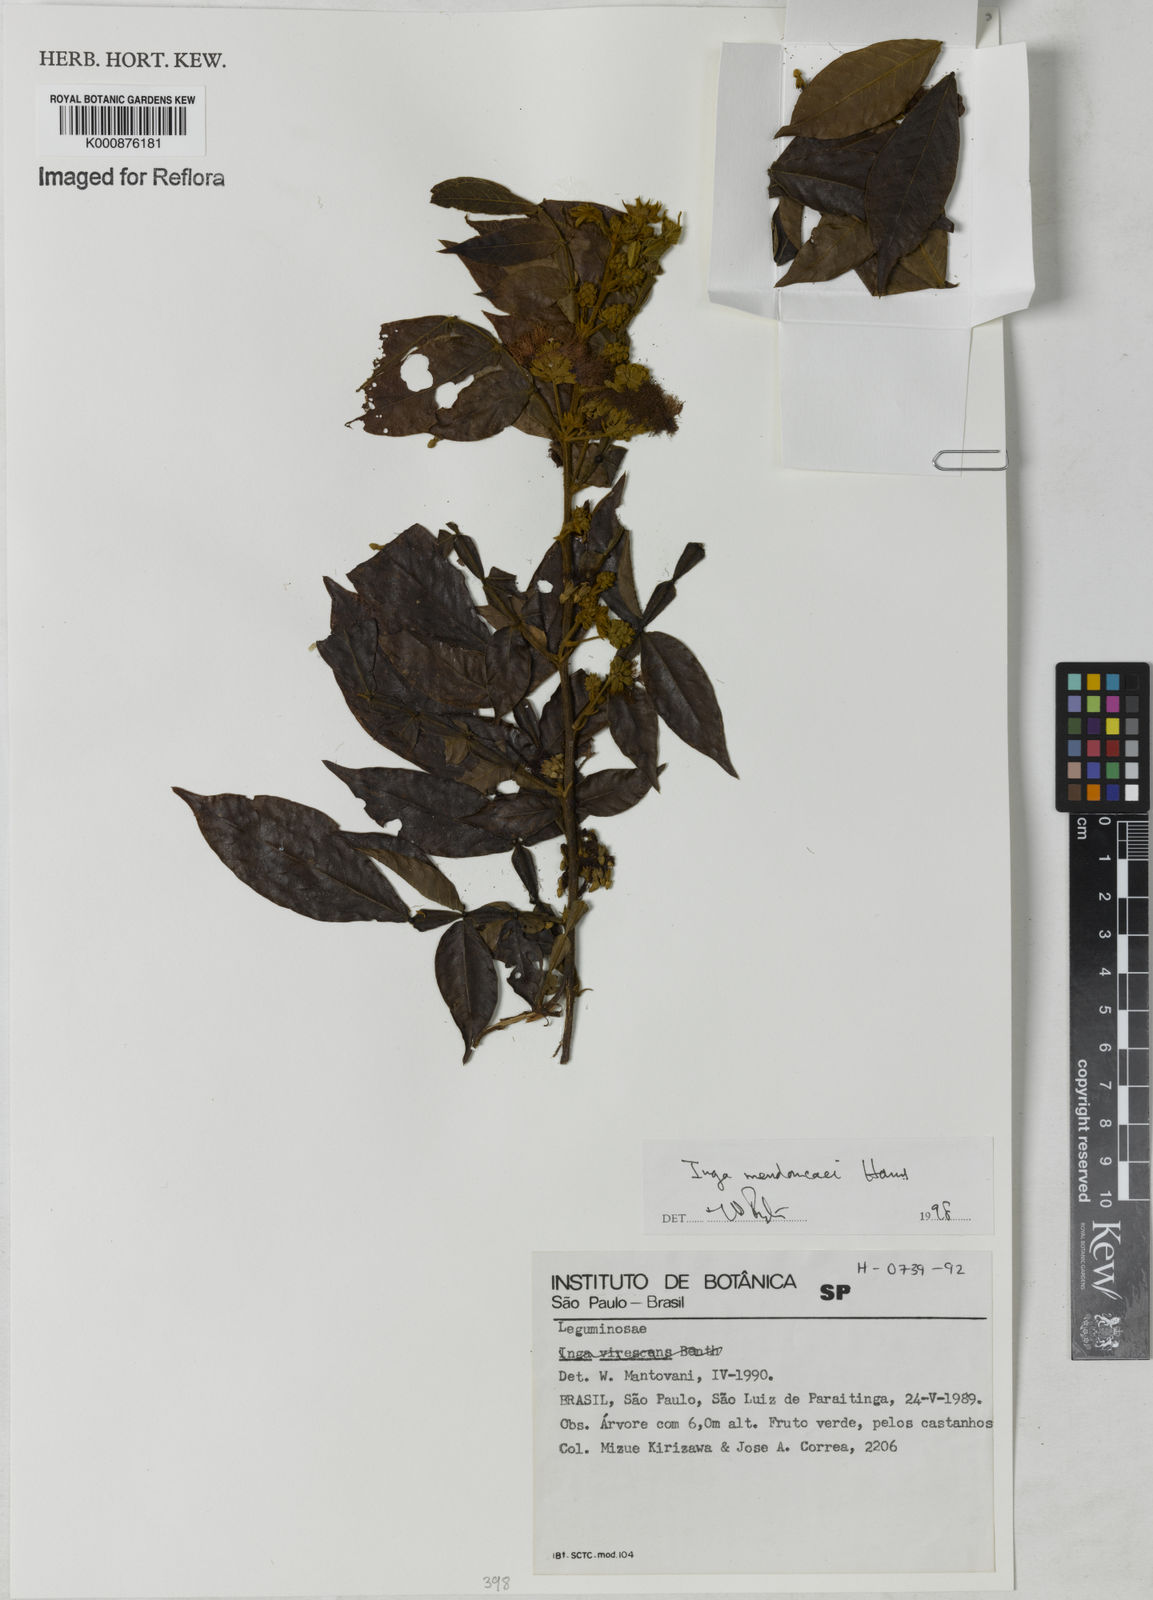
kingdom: Plantae
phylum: Tracheophyta
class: Magnoliopsida
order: Fabales
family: Fabaceae
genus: Inga
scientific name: Inga mendoncaei
